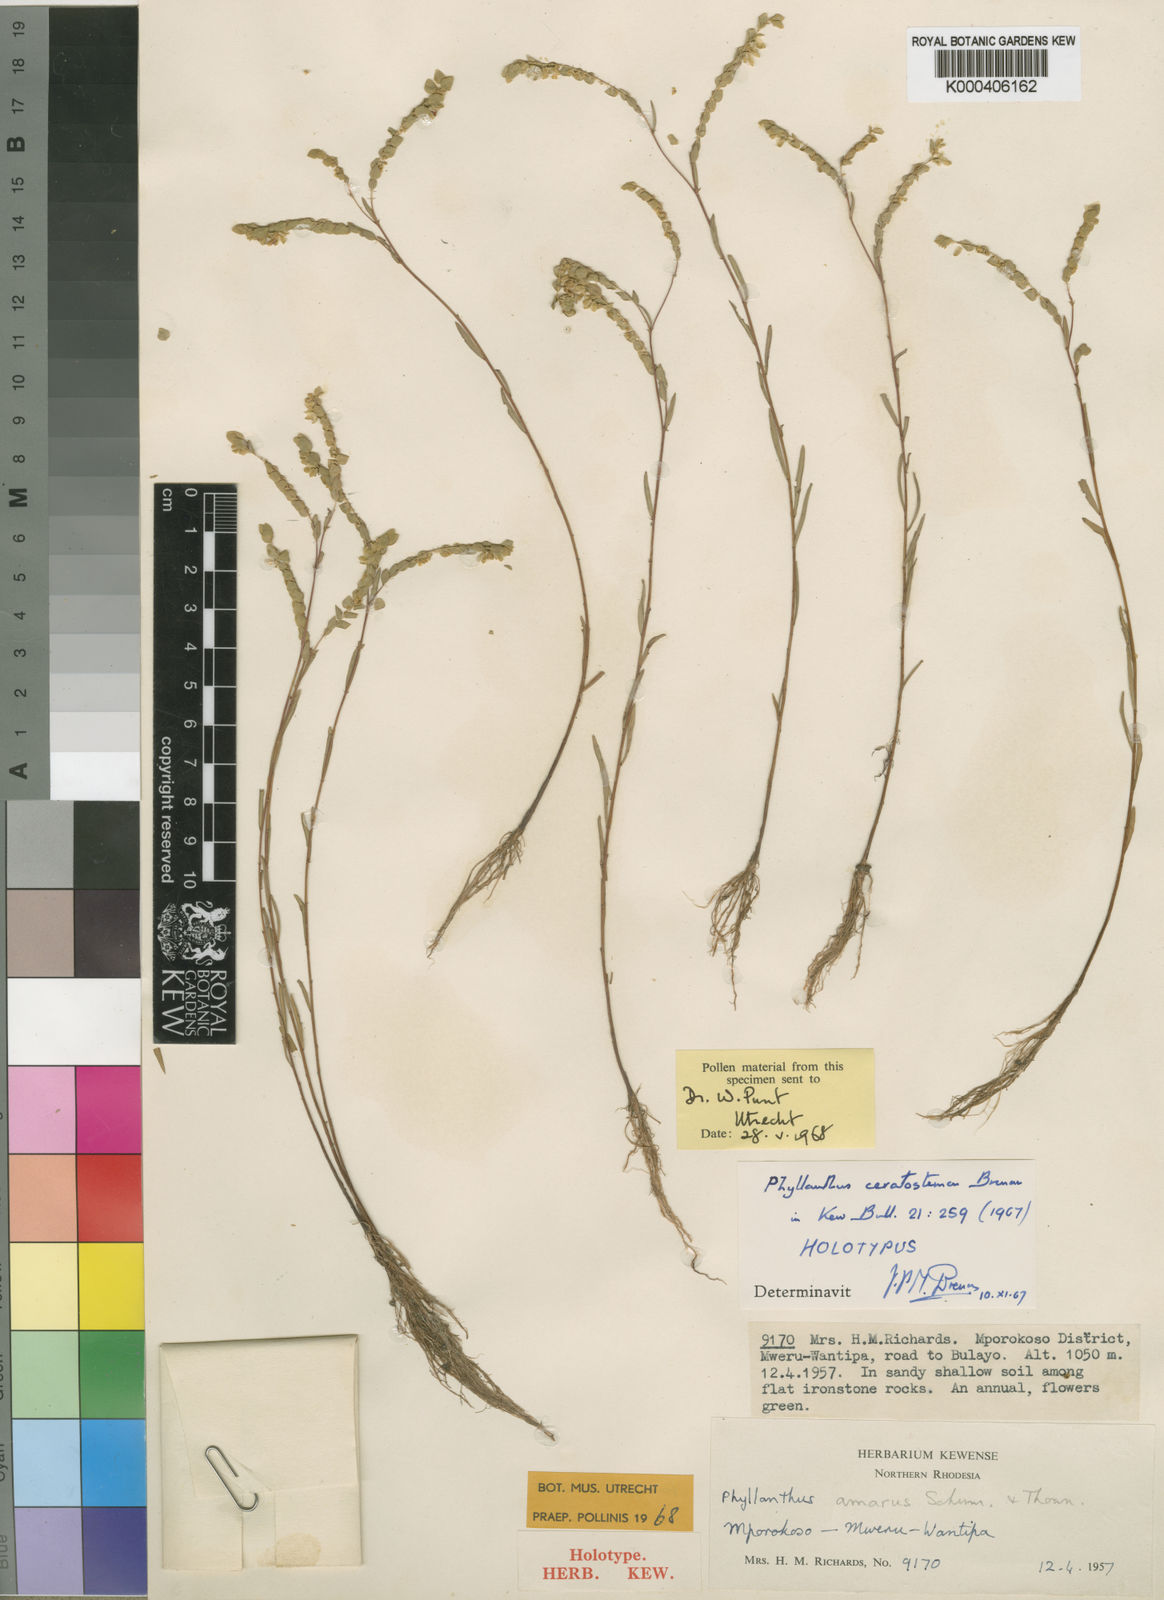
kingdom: Plantae
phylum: Tracheophyta
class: Magnoliopsida
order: Malpighiales
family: Phyllanthaceae
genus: Phyllanthus
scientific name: Phyllanthus ceratostemon
